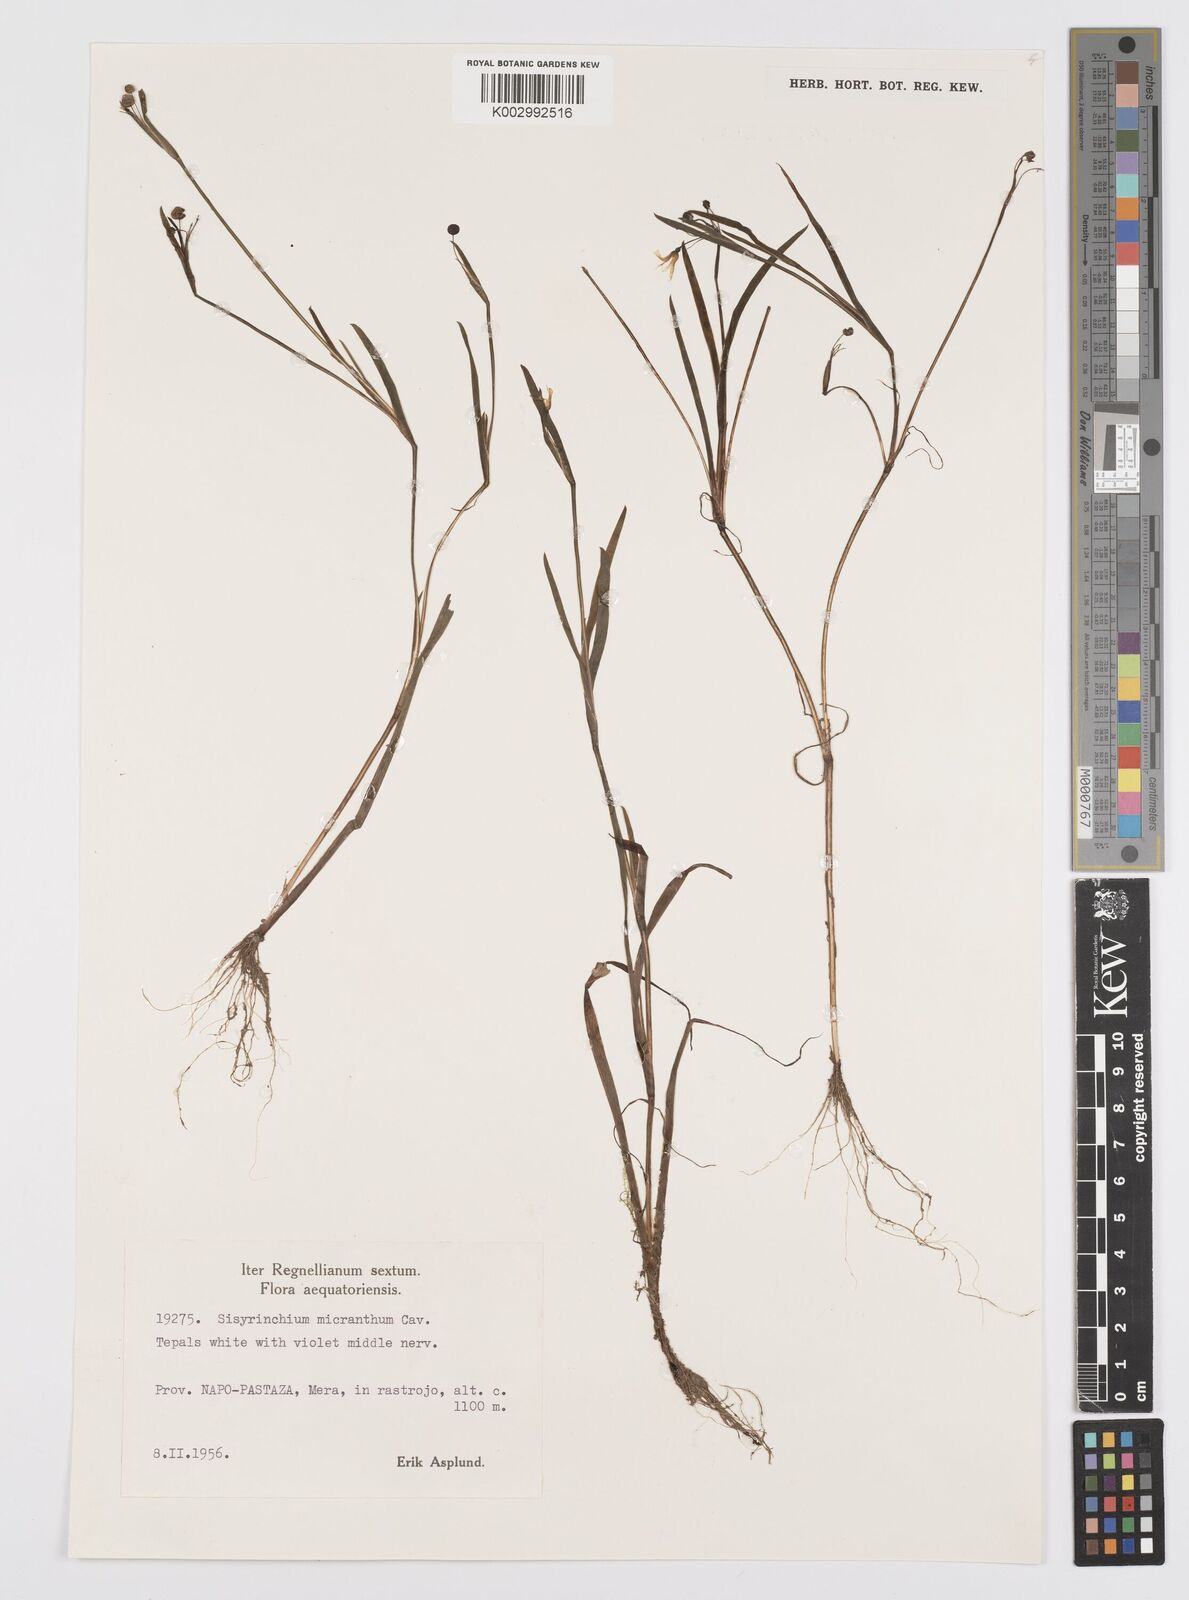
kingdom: Plantae
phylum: Tracheophyta
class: Liliopsida
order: Asparagales
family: Iridaceae
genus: Sisyrinchium
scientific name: Sisyrinchium micranthum
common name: Bermuda pigroot
